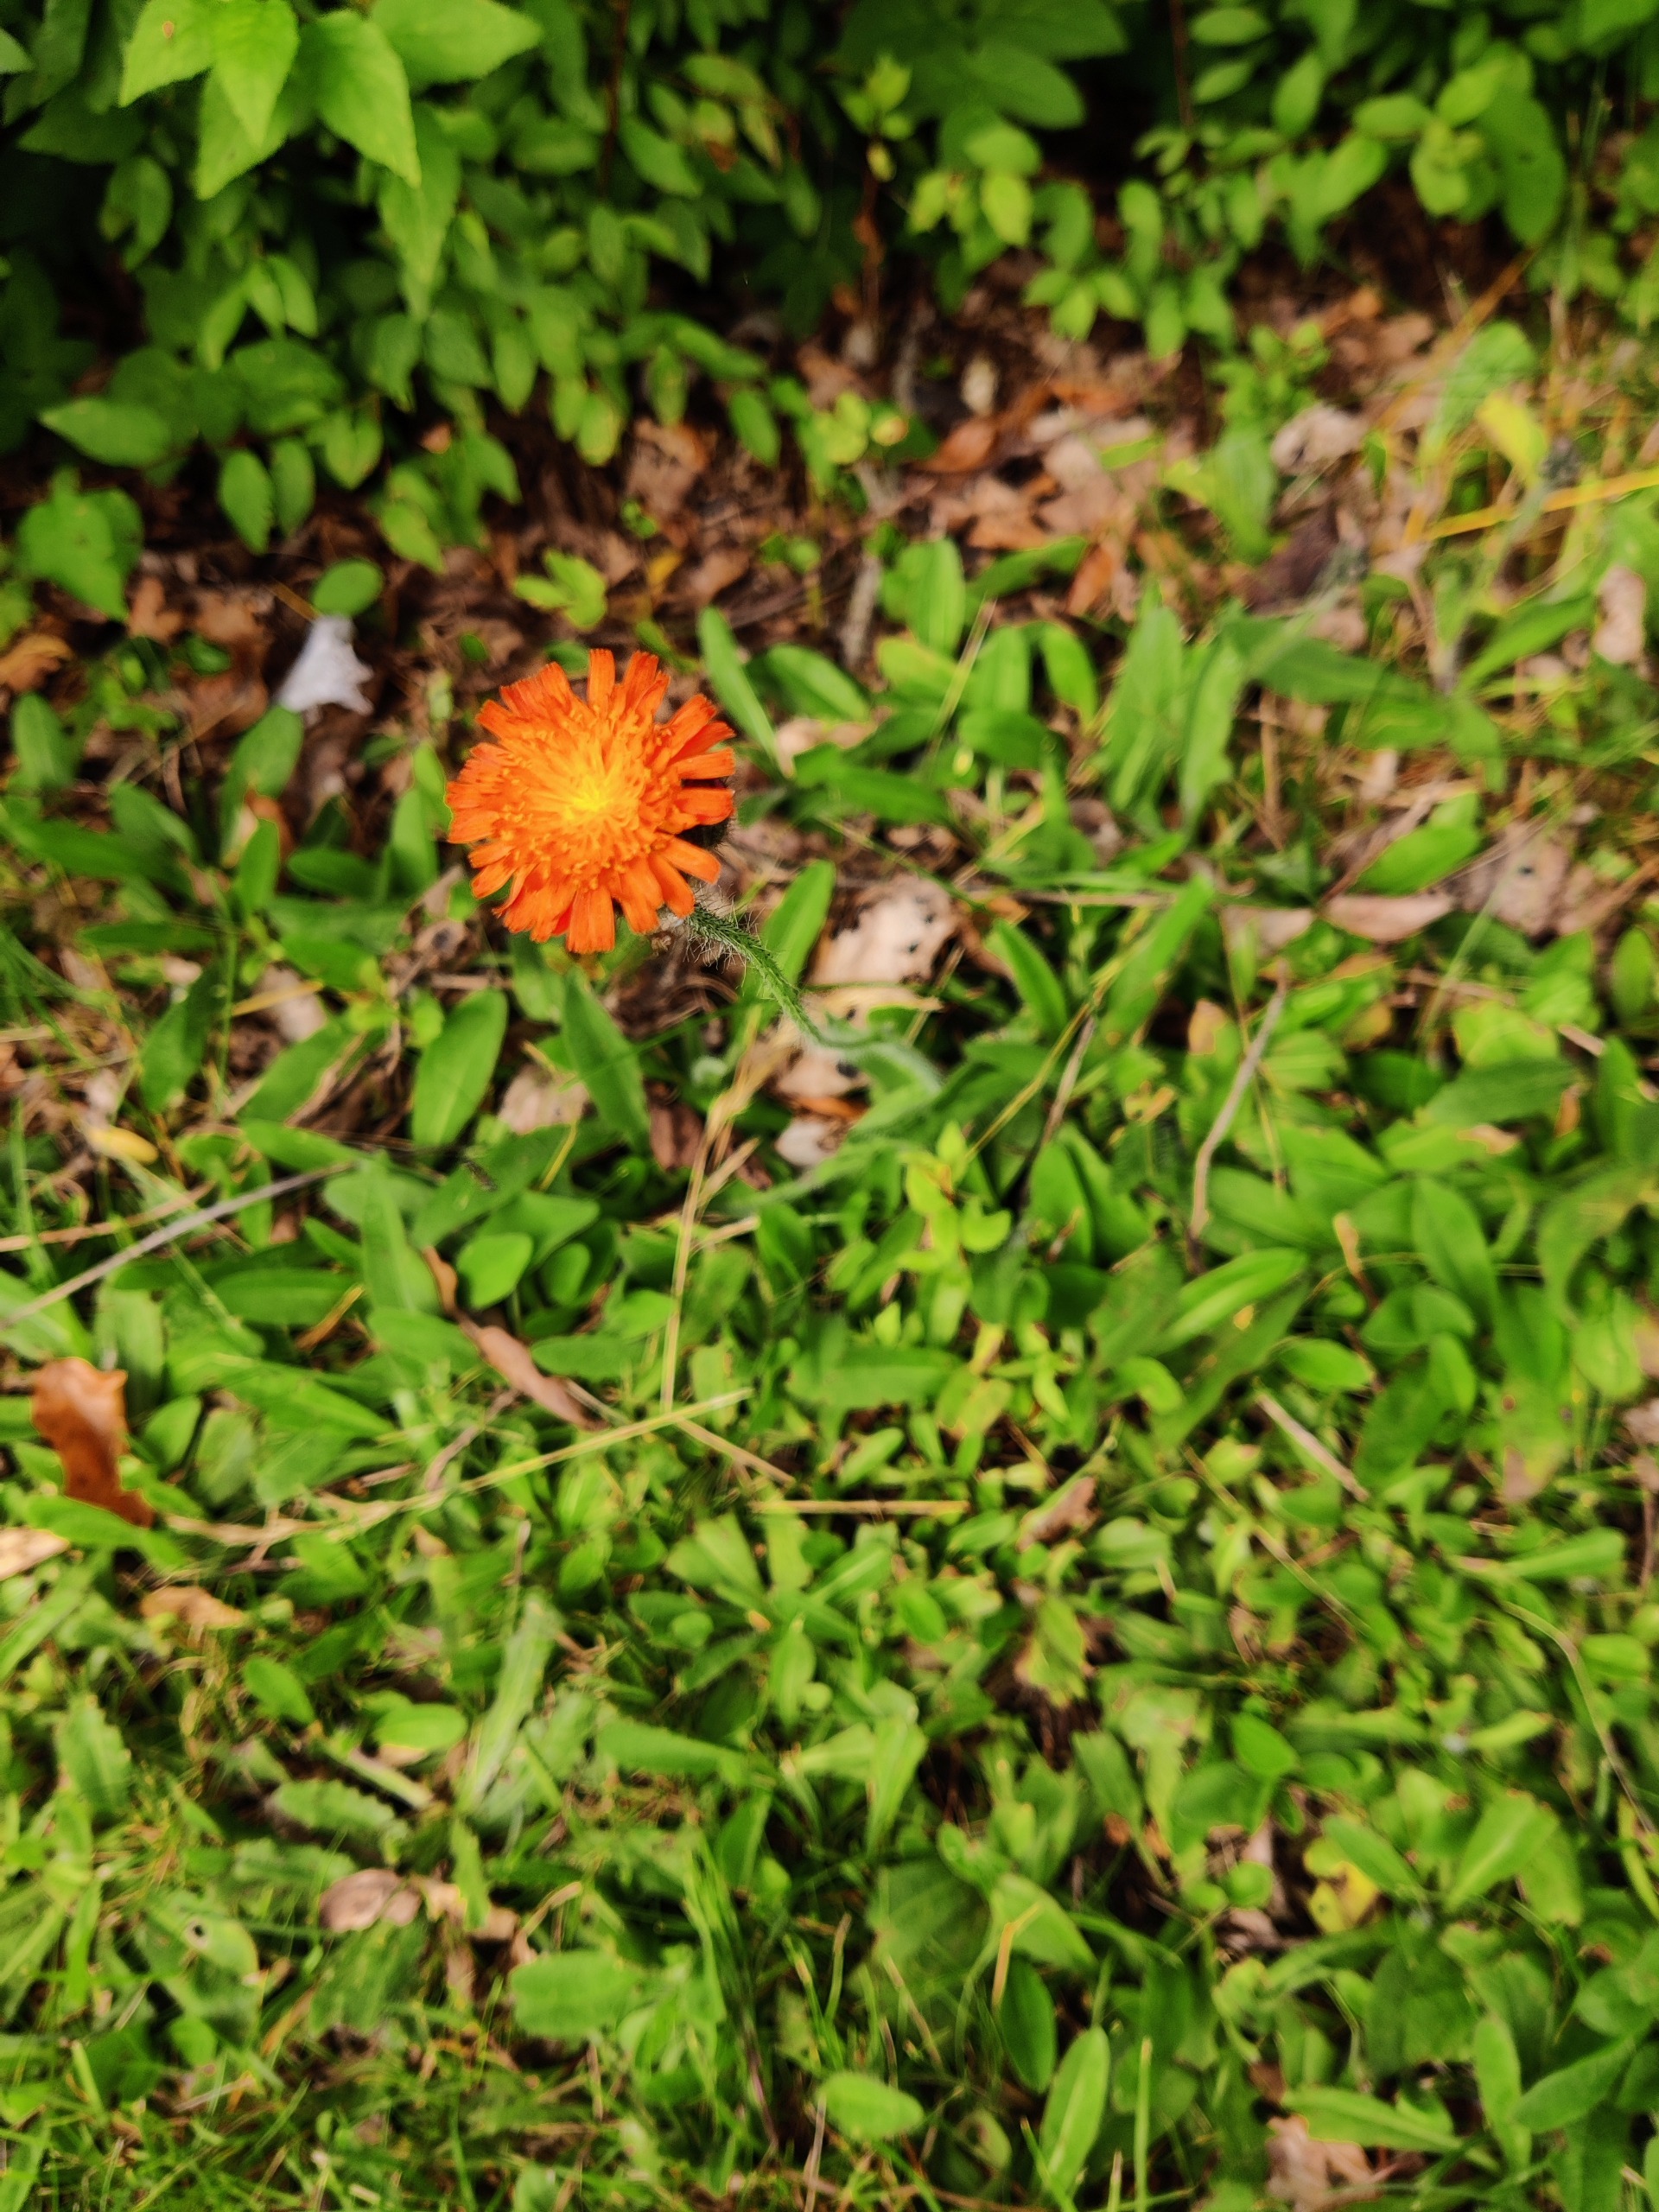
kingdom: Plantae
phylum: Tracheophyta
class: Magnoliopsida
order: Asterales
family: Asteraceae
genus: Pilosella
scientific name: Pilosella aurantiaca
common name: Pomerans-høgeurt
